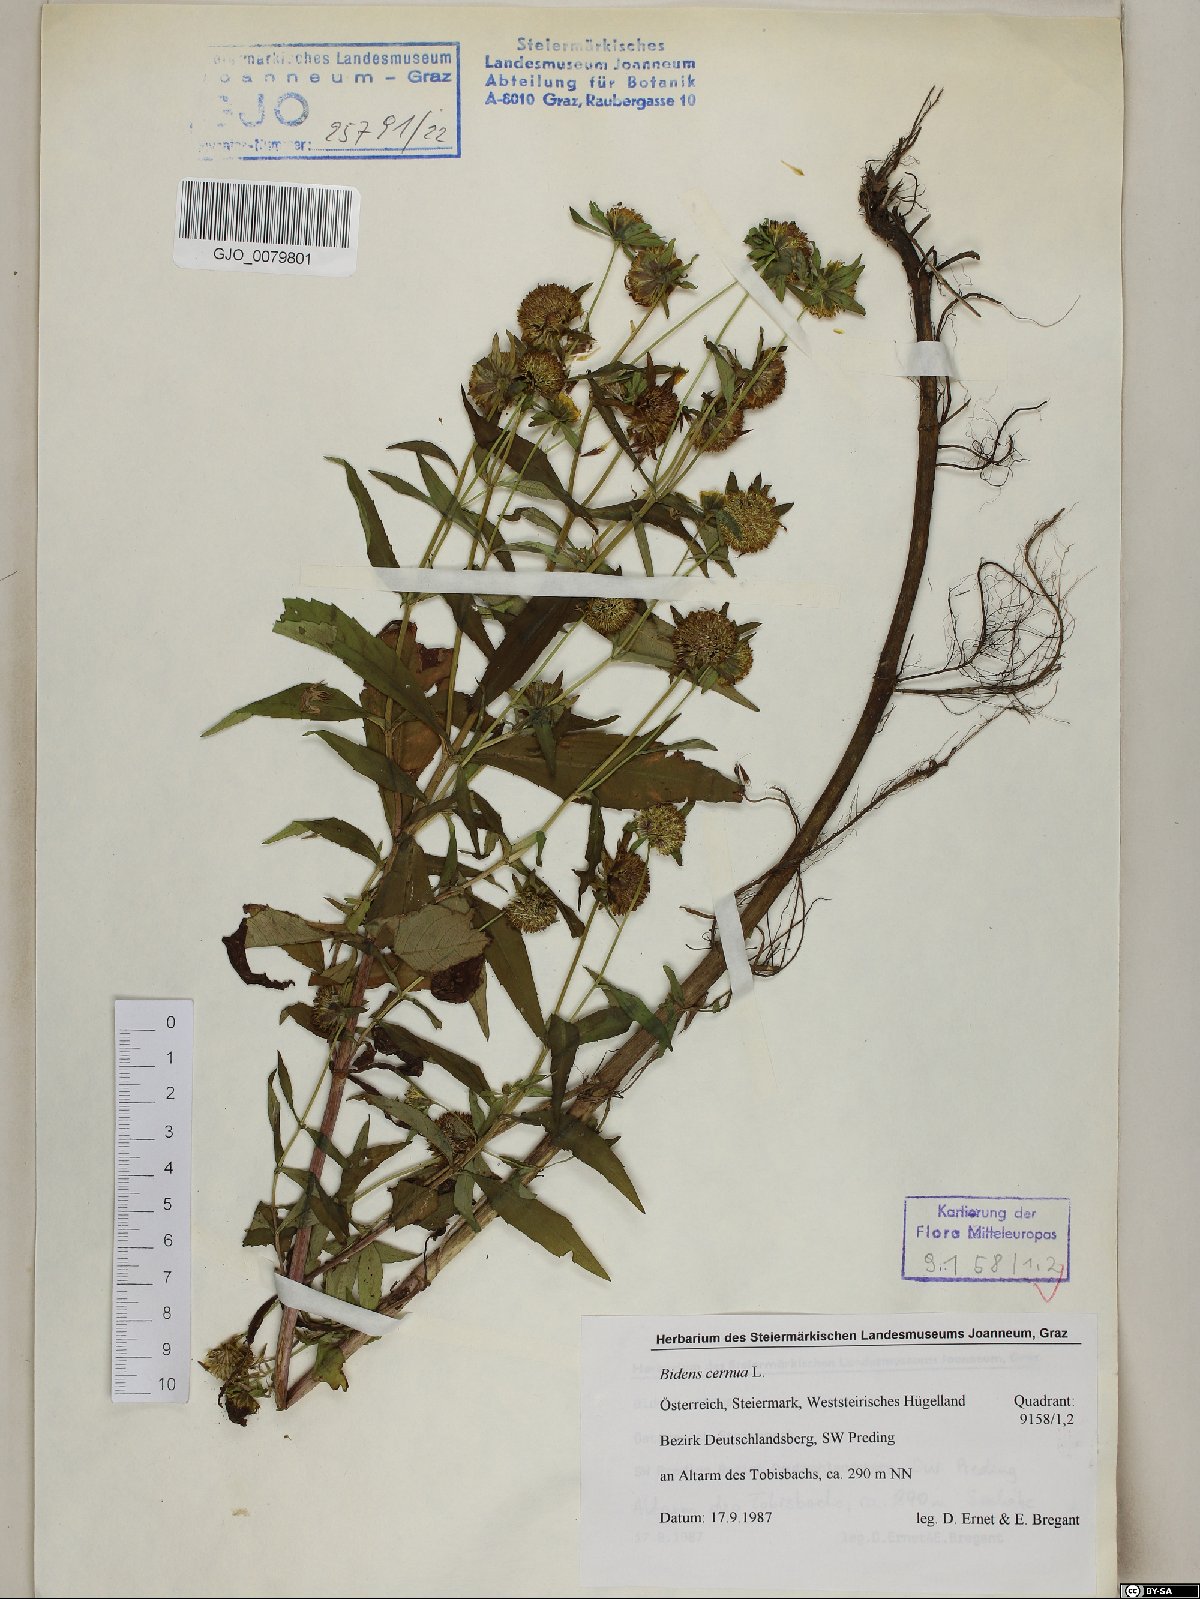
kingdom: Plantae
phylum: Tracheophyta
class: Magnoliopsida
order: Asterales
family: Asteraceae
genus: Bidens
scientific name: Bidens cernua
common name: Nodding bur-marigold
